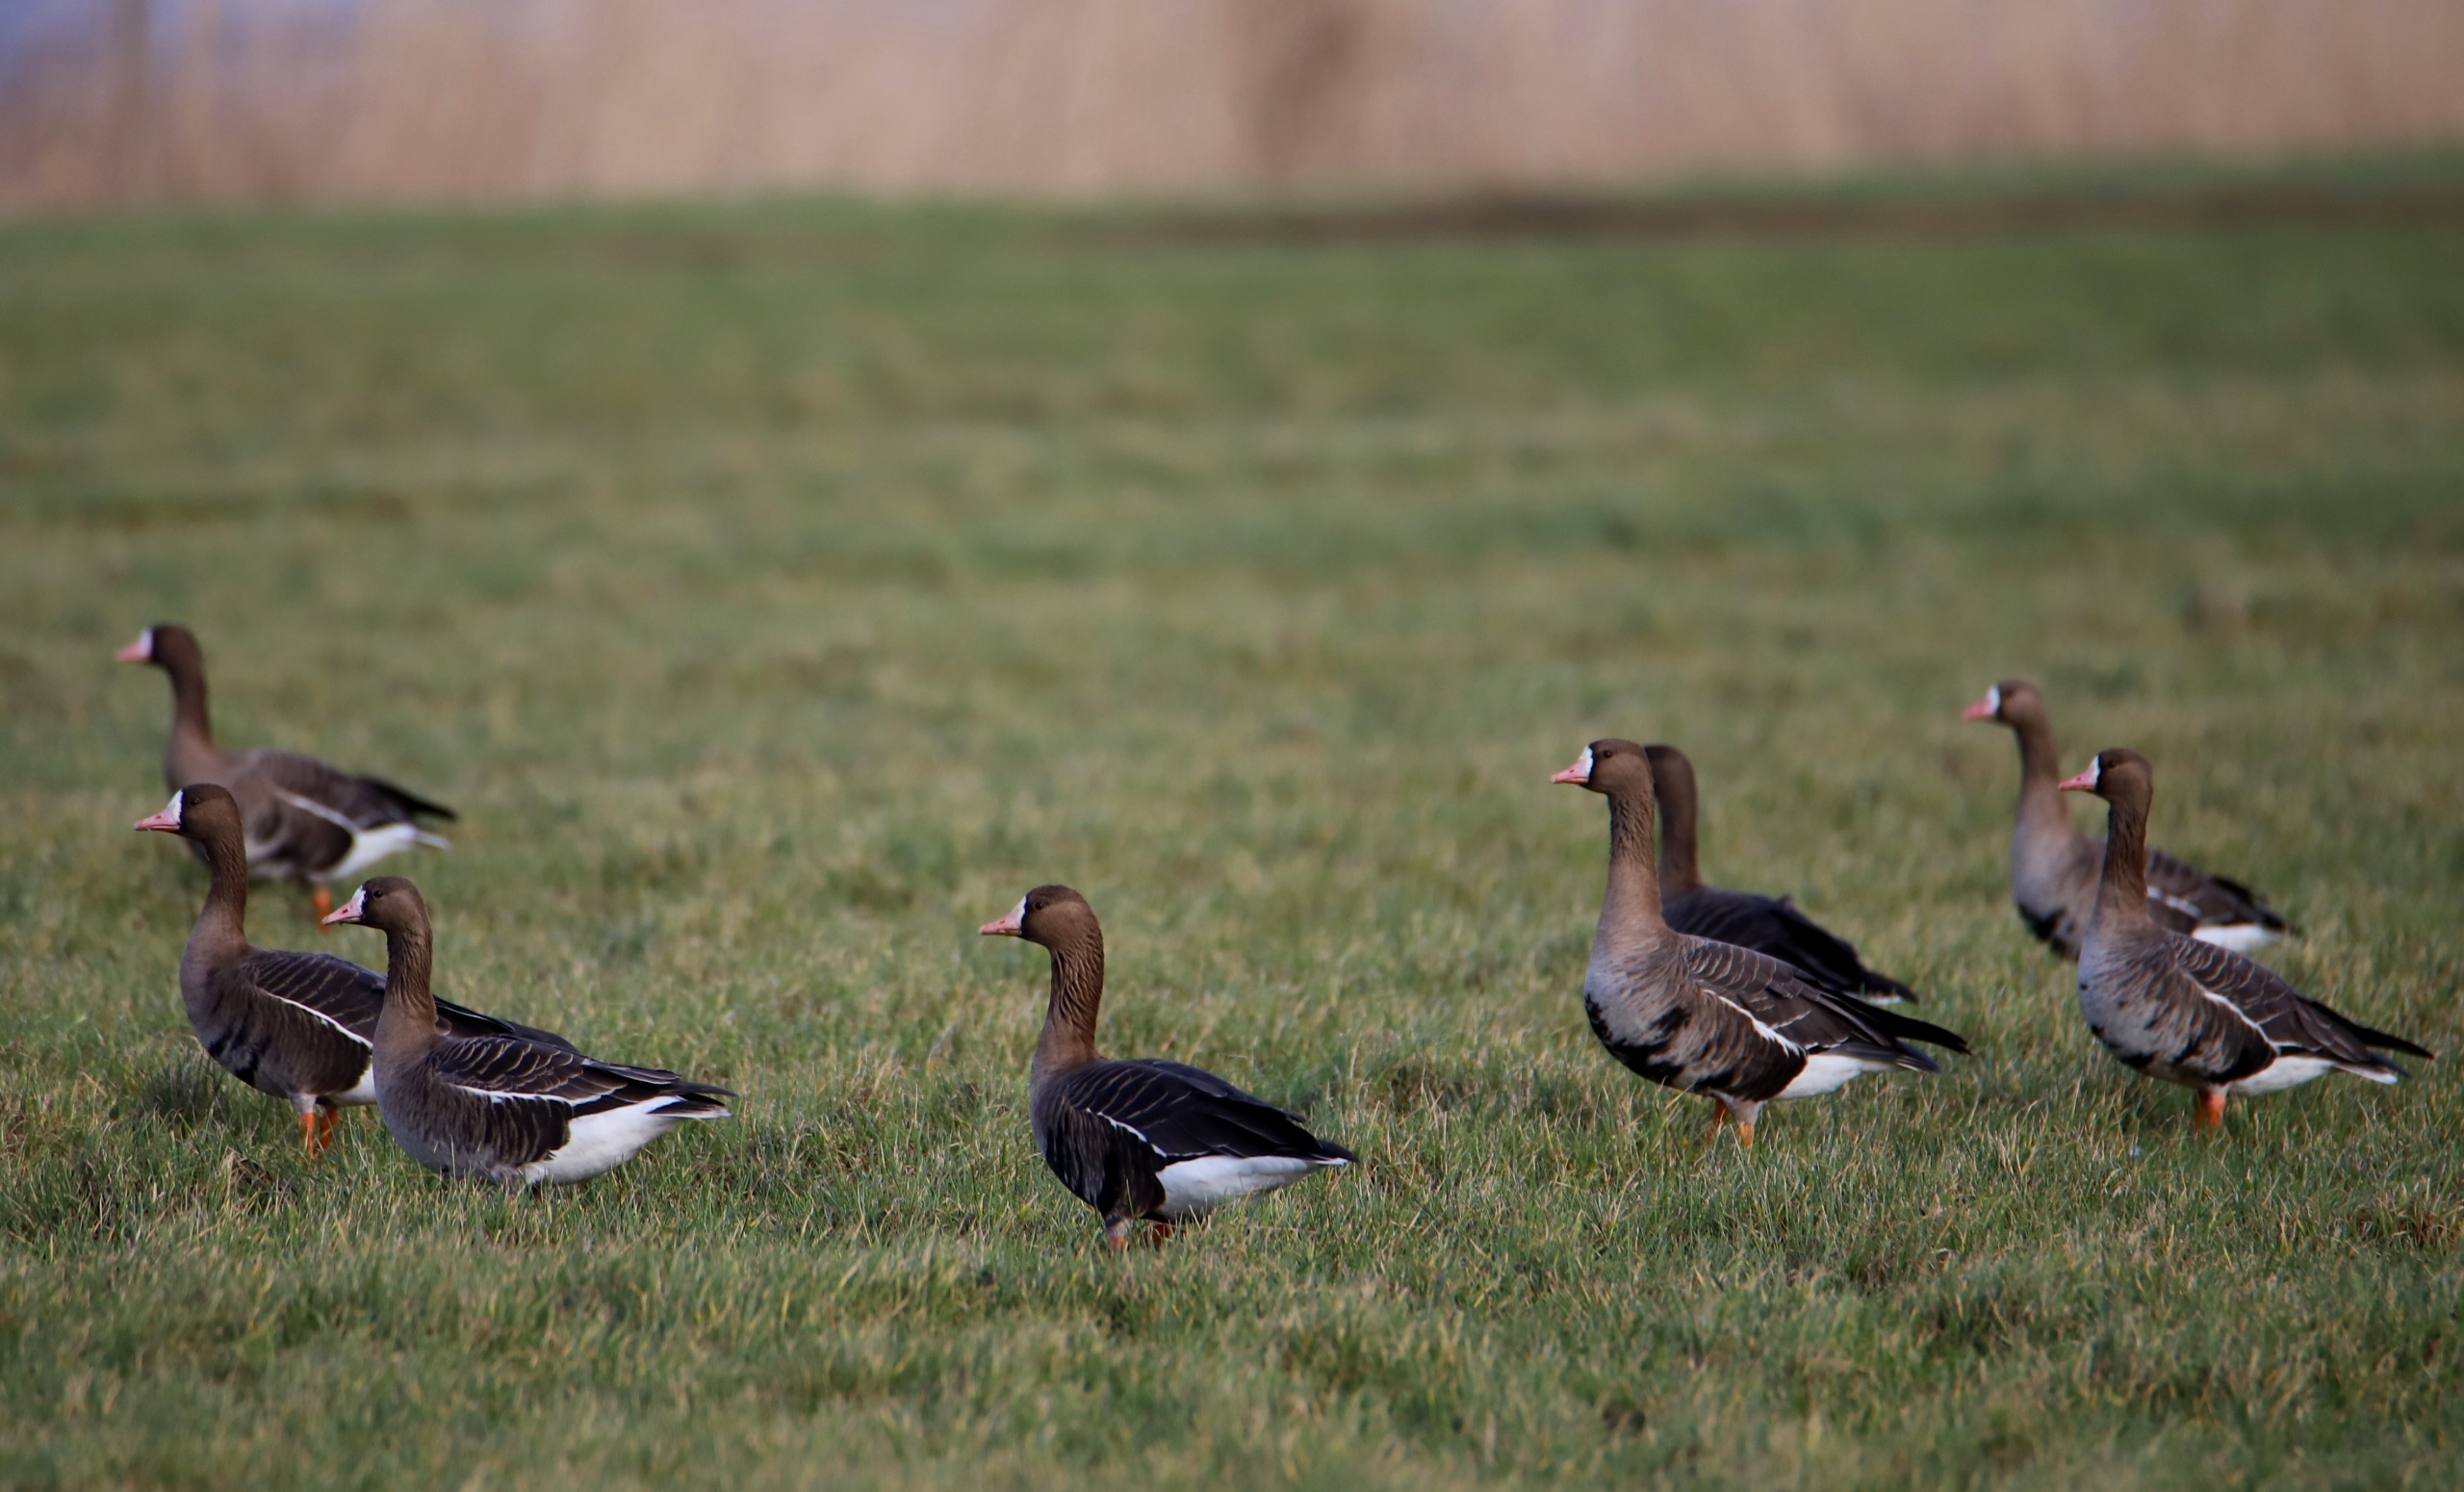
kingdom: Animalia
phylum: Chordata
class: Aves
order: Anseriformes
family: Anatidae
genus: Anser
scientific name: Anser albifrons
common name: Blisgås
